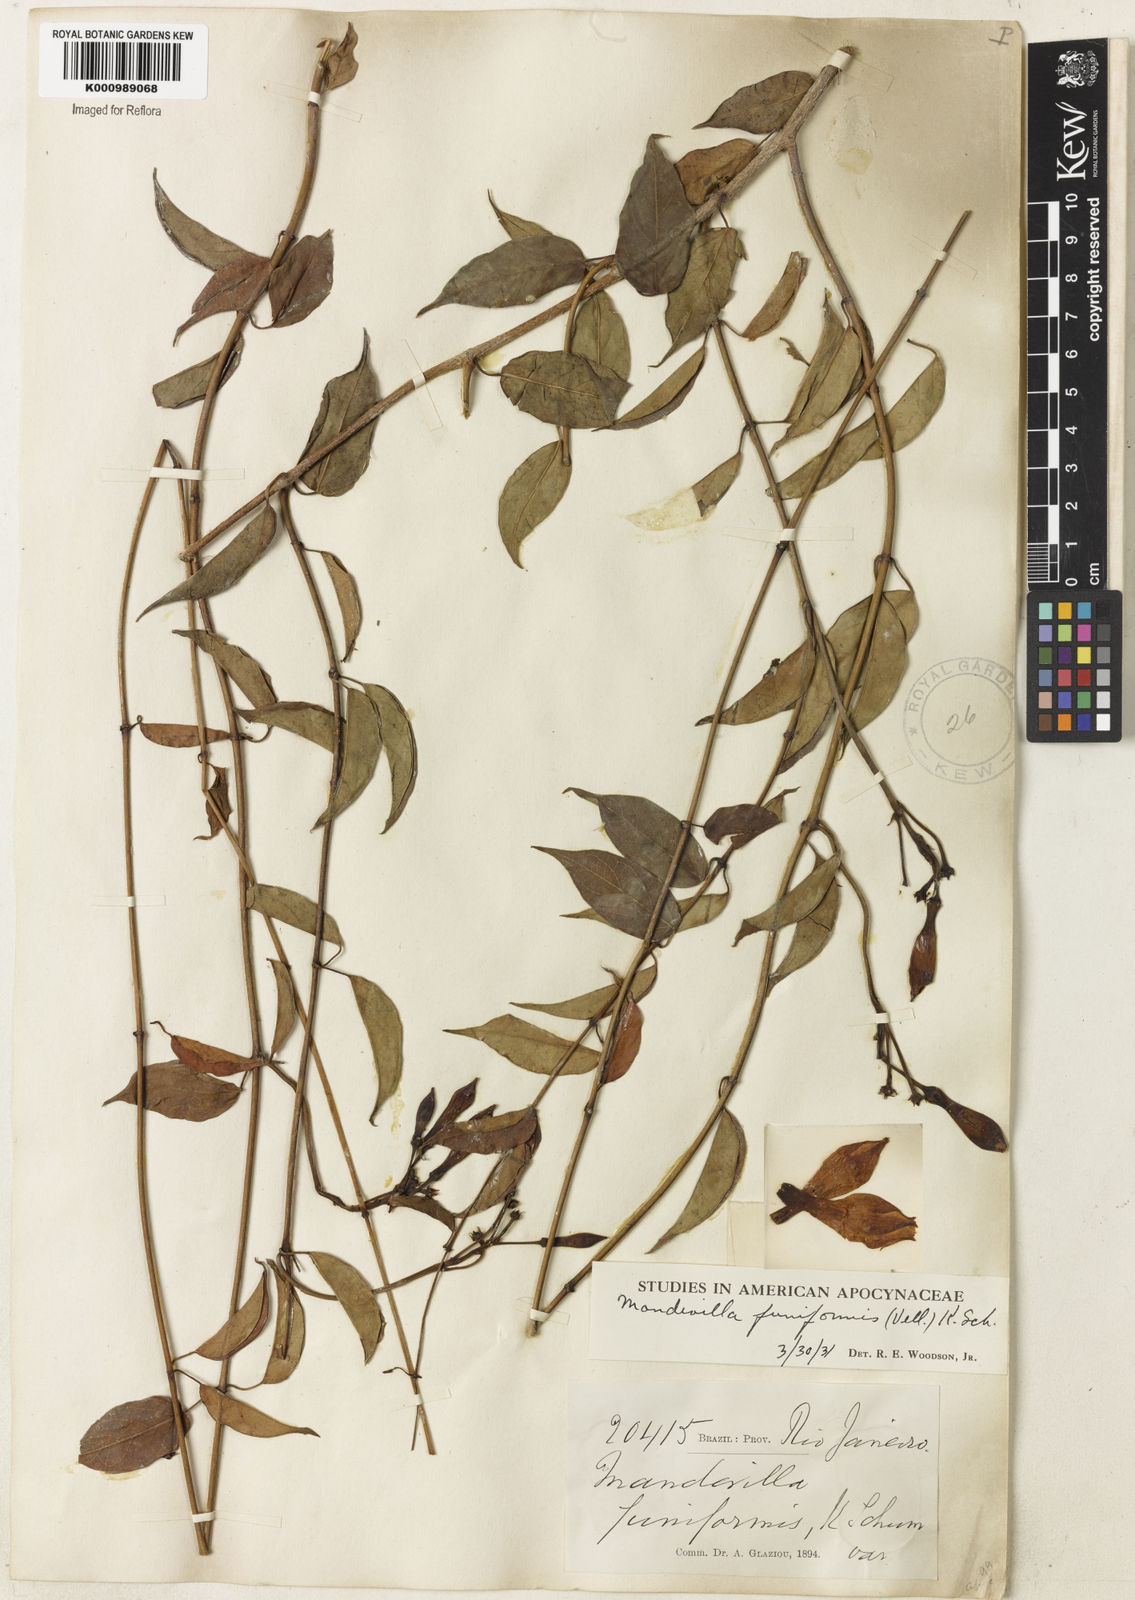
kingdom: Plantae
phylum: Tracheophyta
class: Magnoliopsida
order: Gentianales
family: Apocynaceae
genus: Mandevilla
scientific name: Mandevilla funiformis
